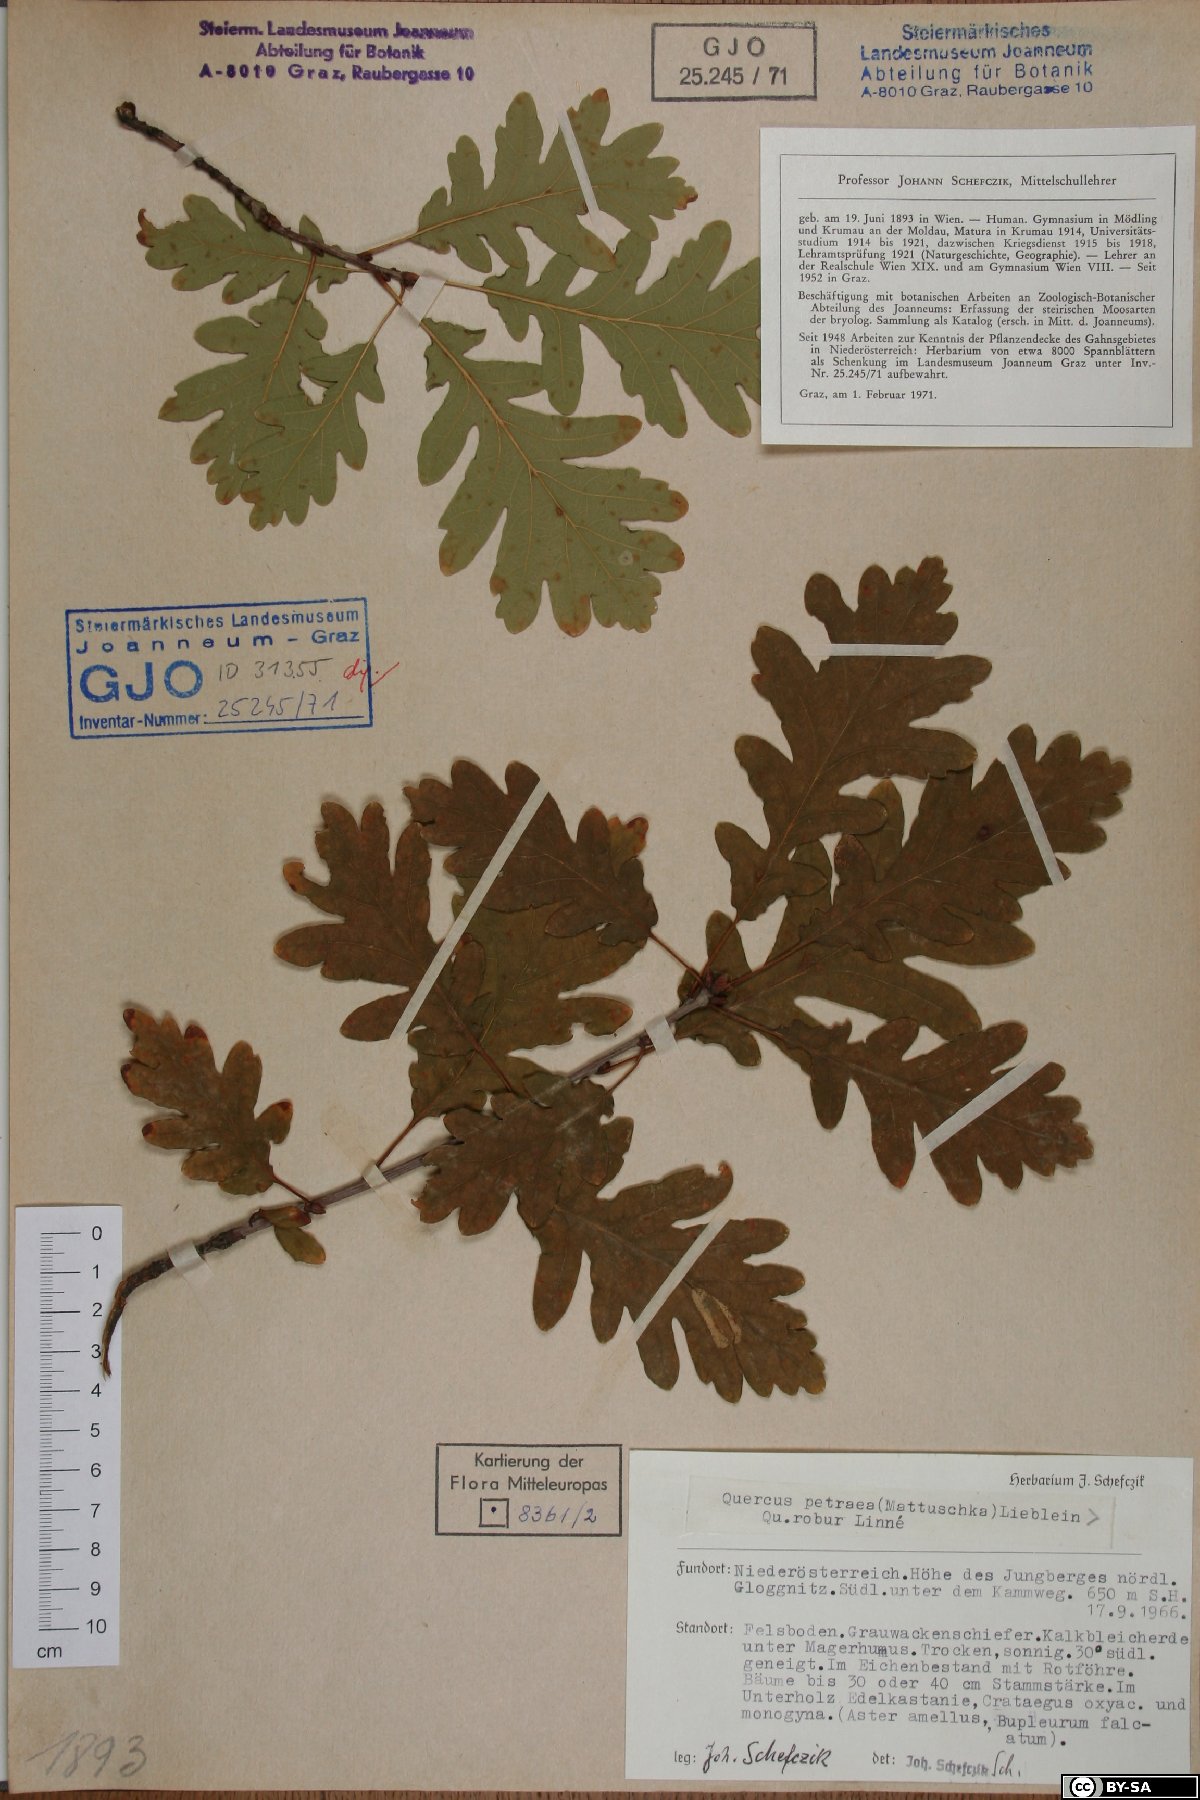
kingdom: Plantae
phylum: Tracheophyta
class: Magnoliopsida
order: Fagales
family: Fagaceae
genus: Quercus
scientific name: Quercus petraea
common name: Sessile oak
